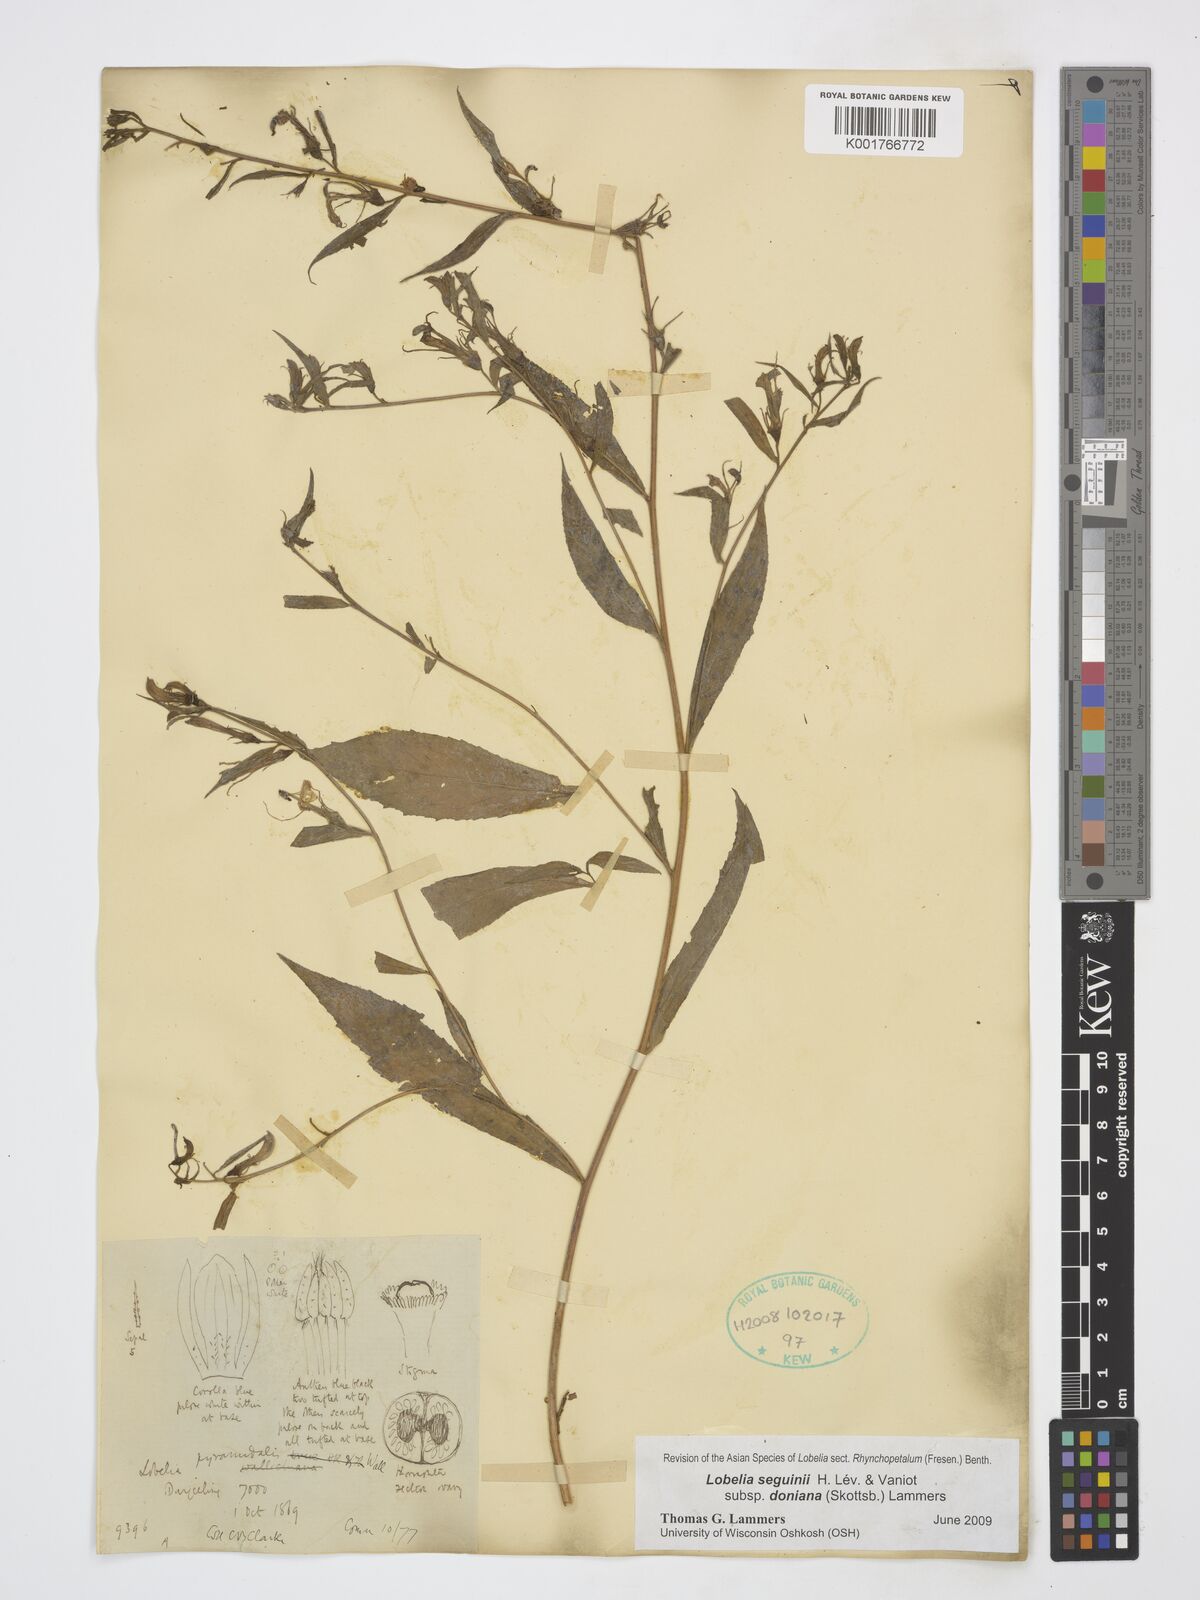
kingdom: Plantae
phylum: Tracheophyta
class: Magnoliopsida
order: Asterales
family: Campanulaceae
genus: Lobelia
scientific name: Lobelia seguinii
